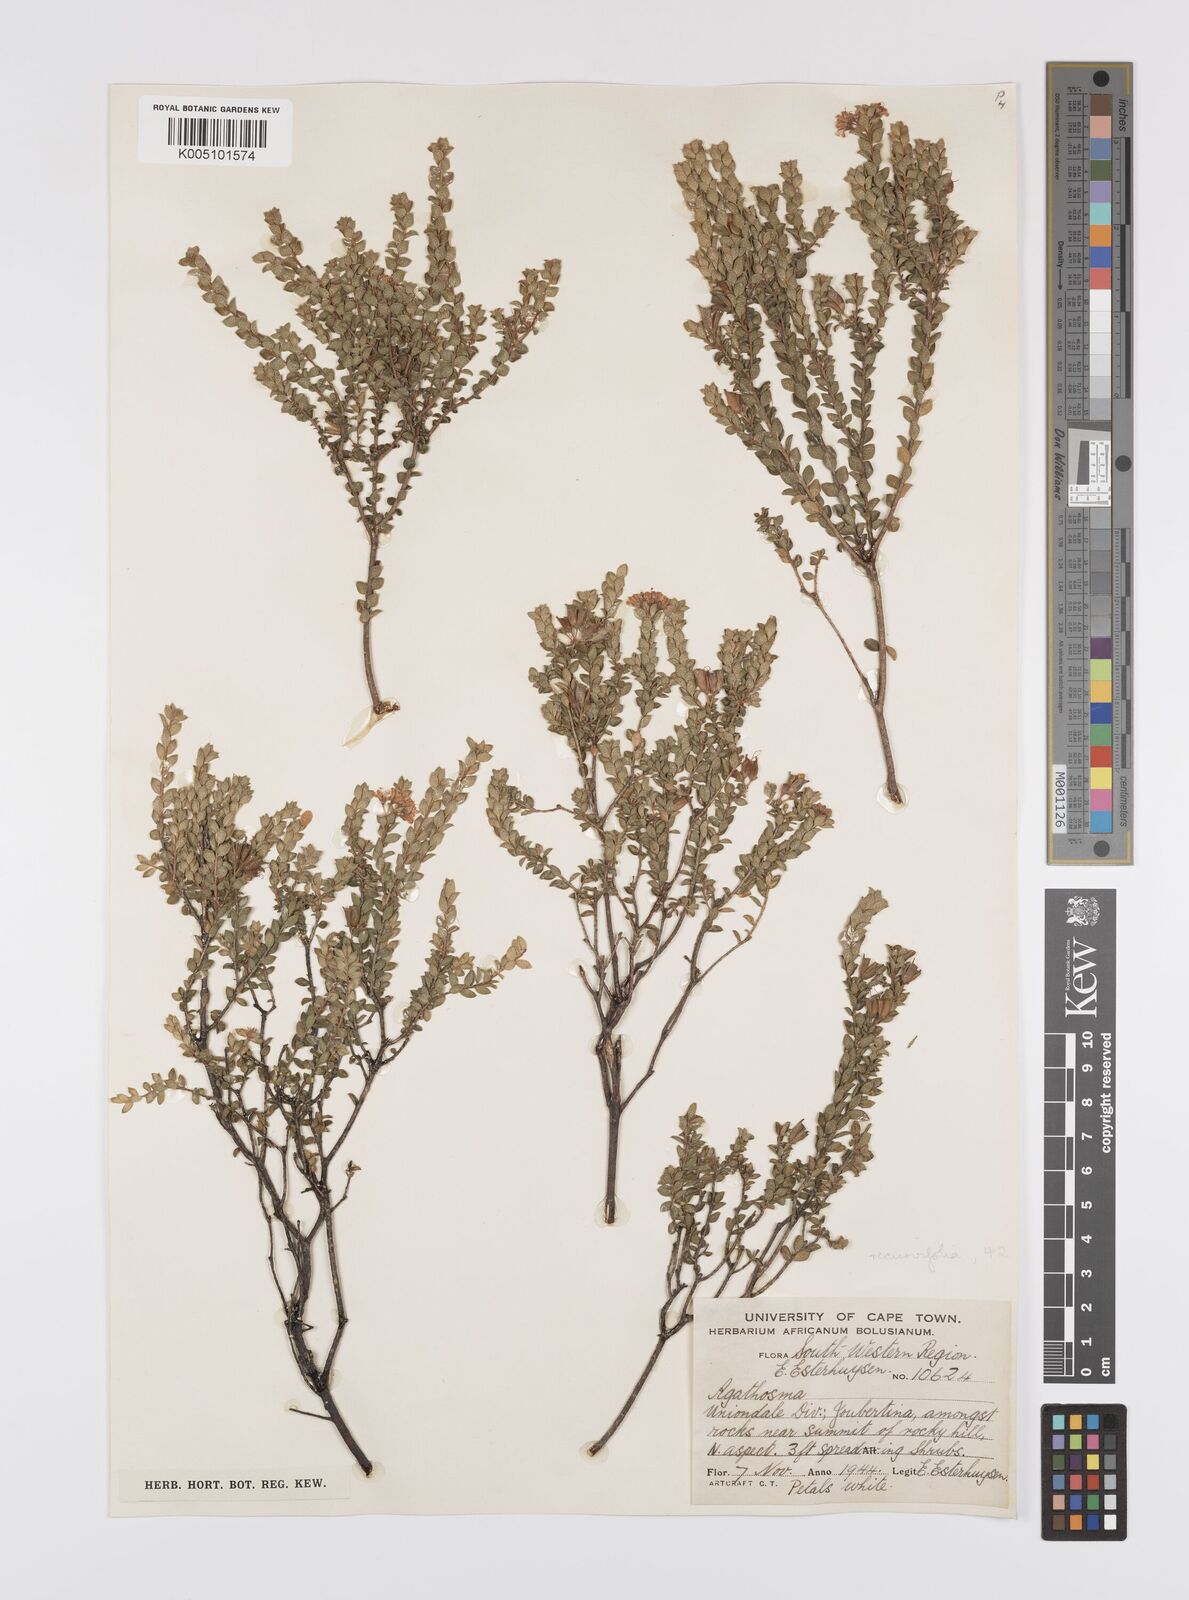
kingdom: Plantae
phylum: Tracheophyta
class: Magnoliopsida
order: Sapindales
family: Rutaceae
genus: Agathosma
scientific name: Agathosma recurvifolia
